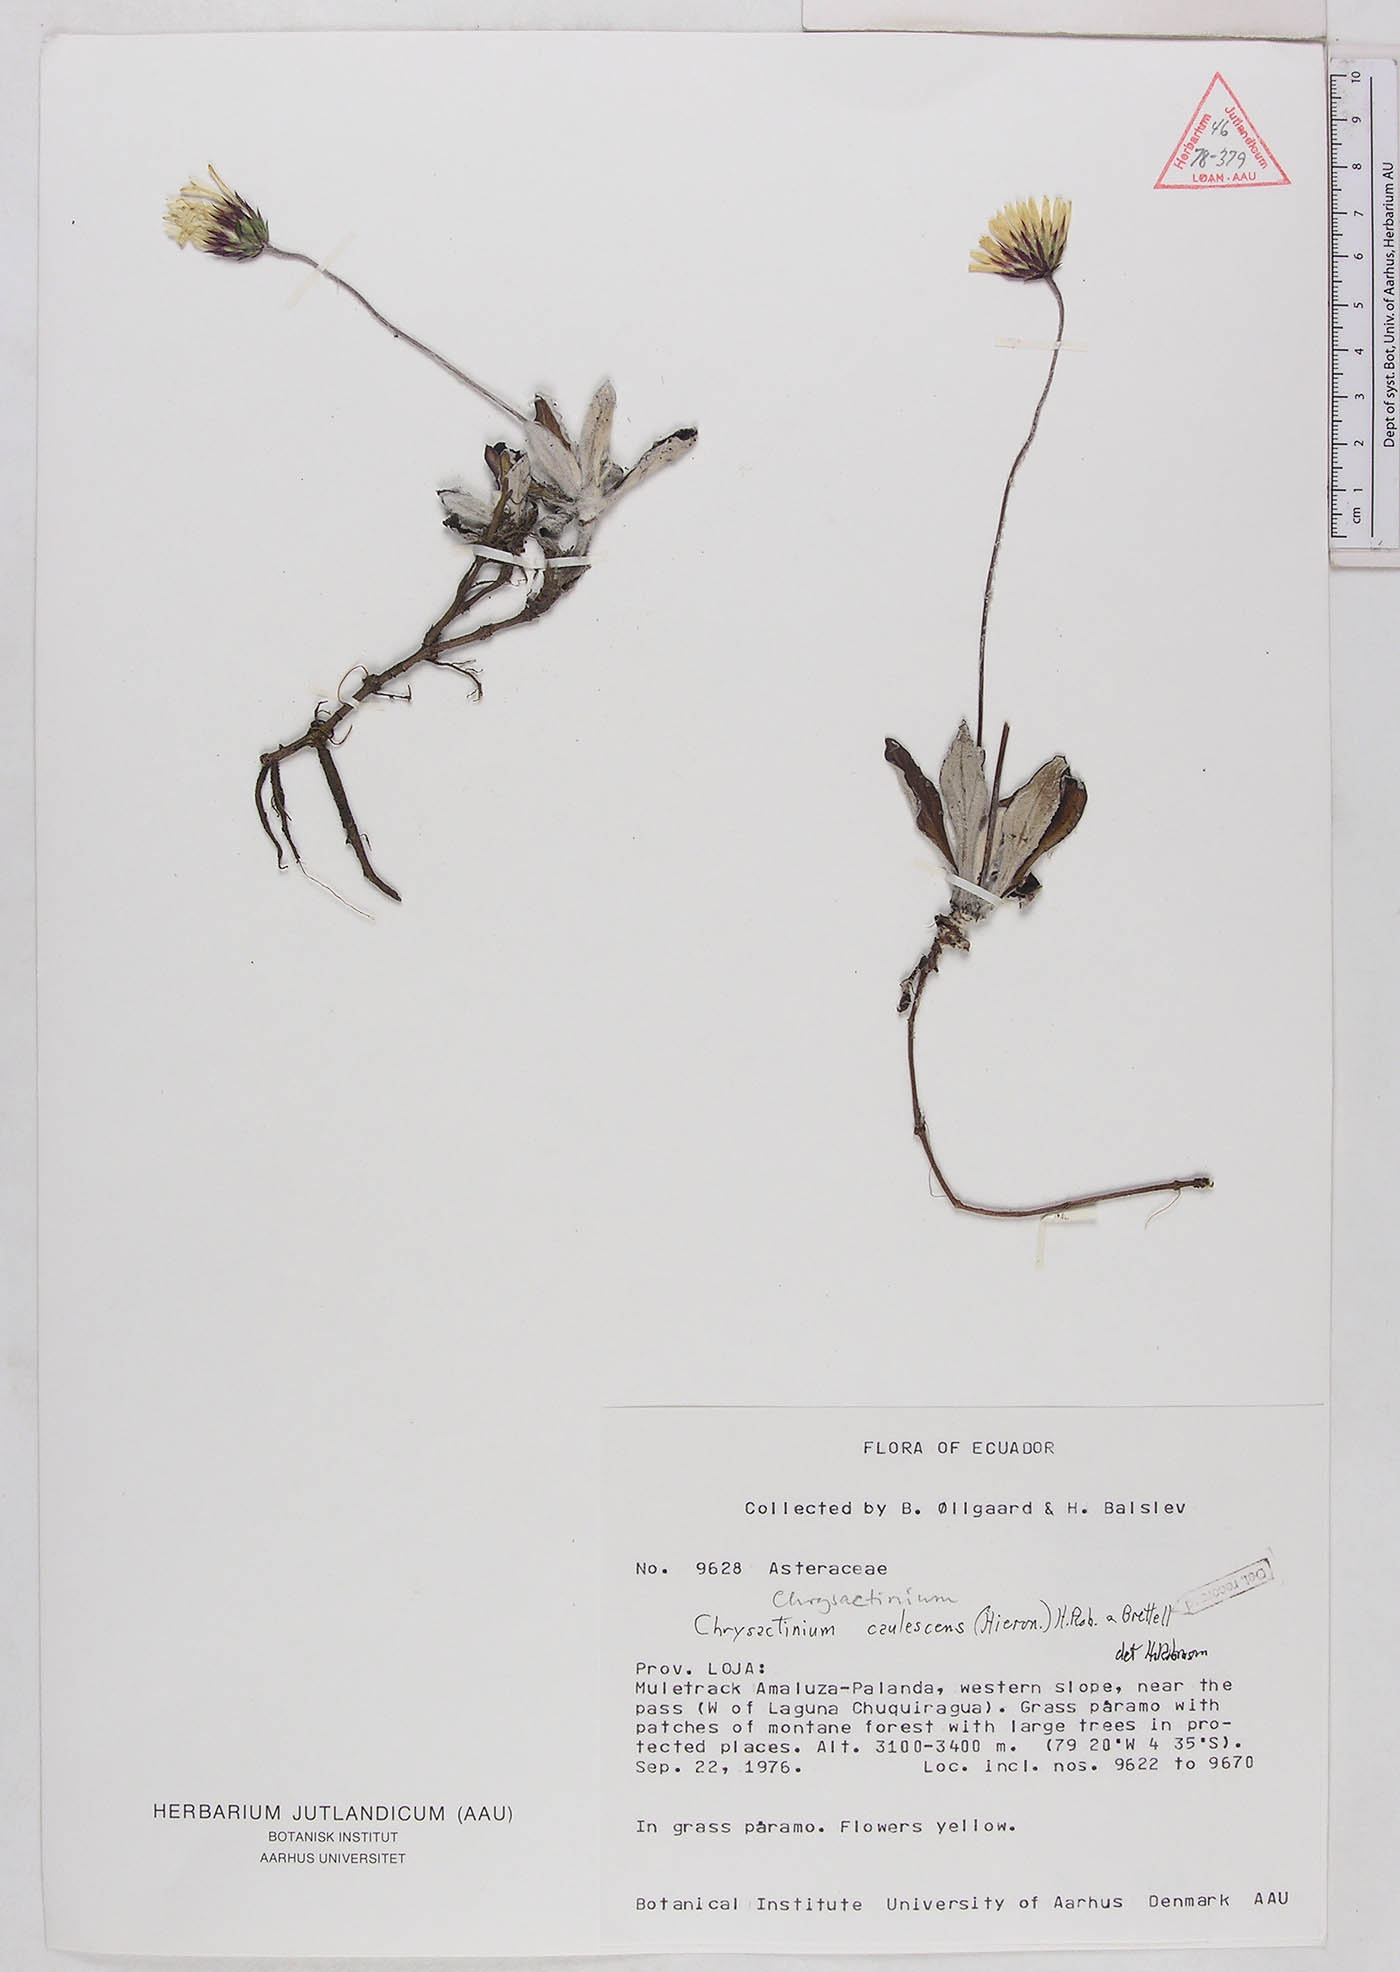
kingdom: Plantae
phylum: Tracheophyta
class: Magnoliopsida
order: Asterales
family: Asteraceae
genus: Chrysactinium
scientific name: Chrysactinium caulescens
